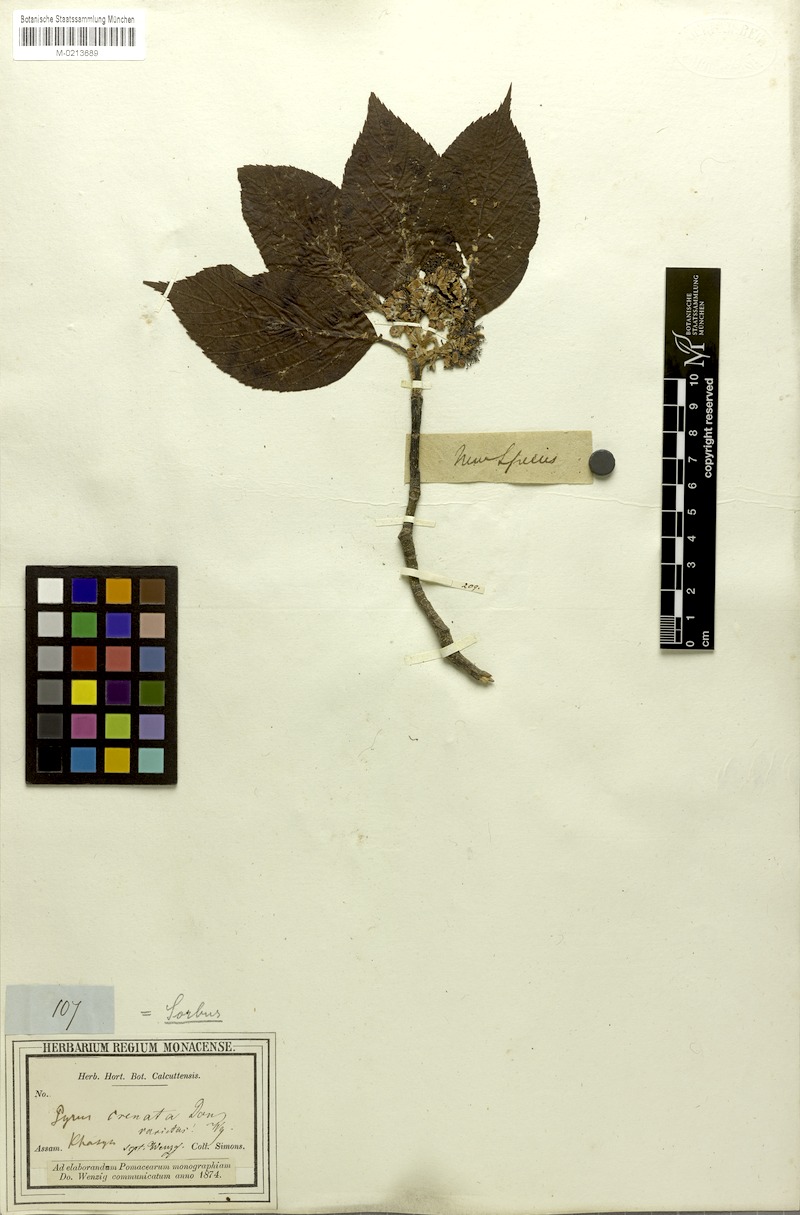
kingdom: Plantae
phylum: Tracheophyta
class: Magnoliopsida
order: Rosales
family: Rosaceae
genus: Sorbus
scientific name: Sorbus vestita
